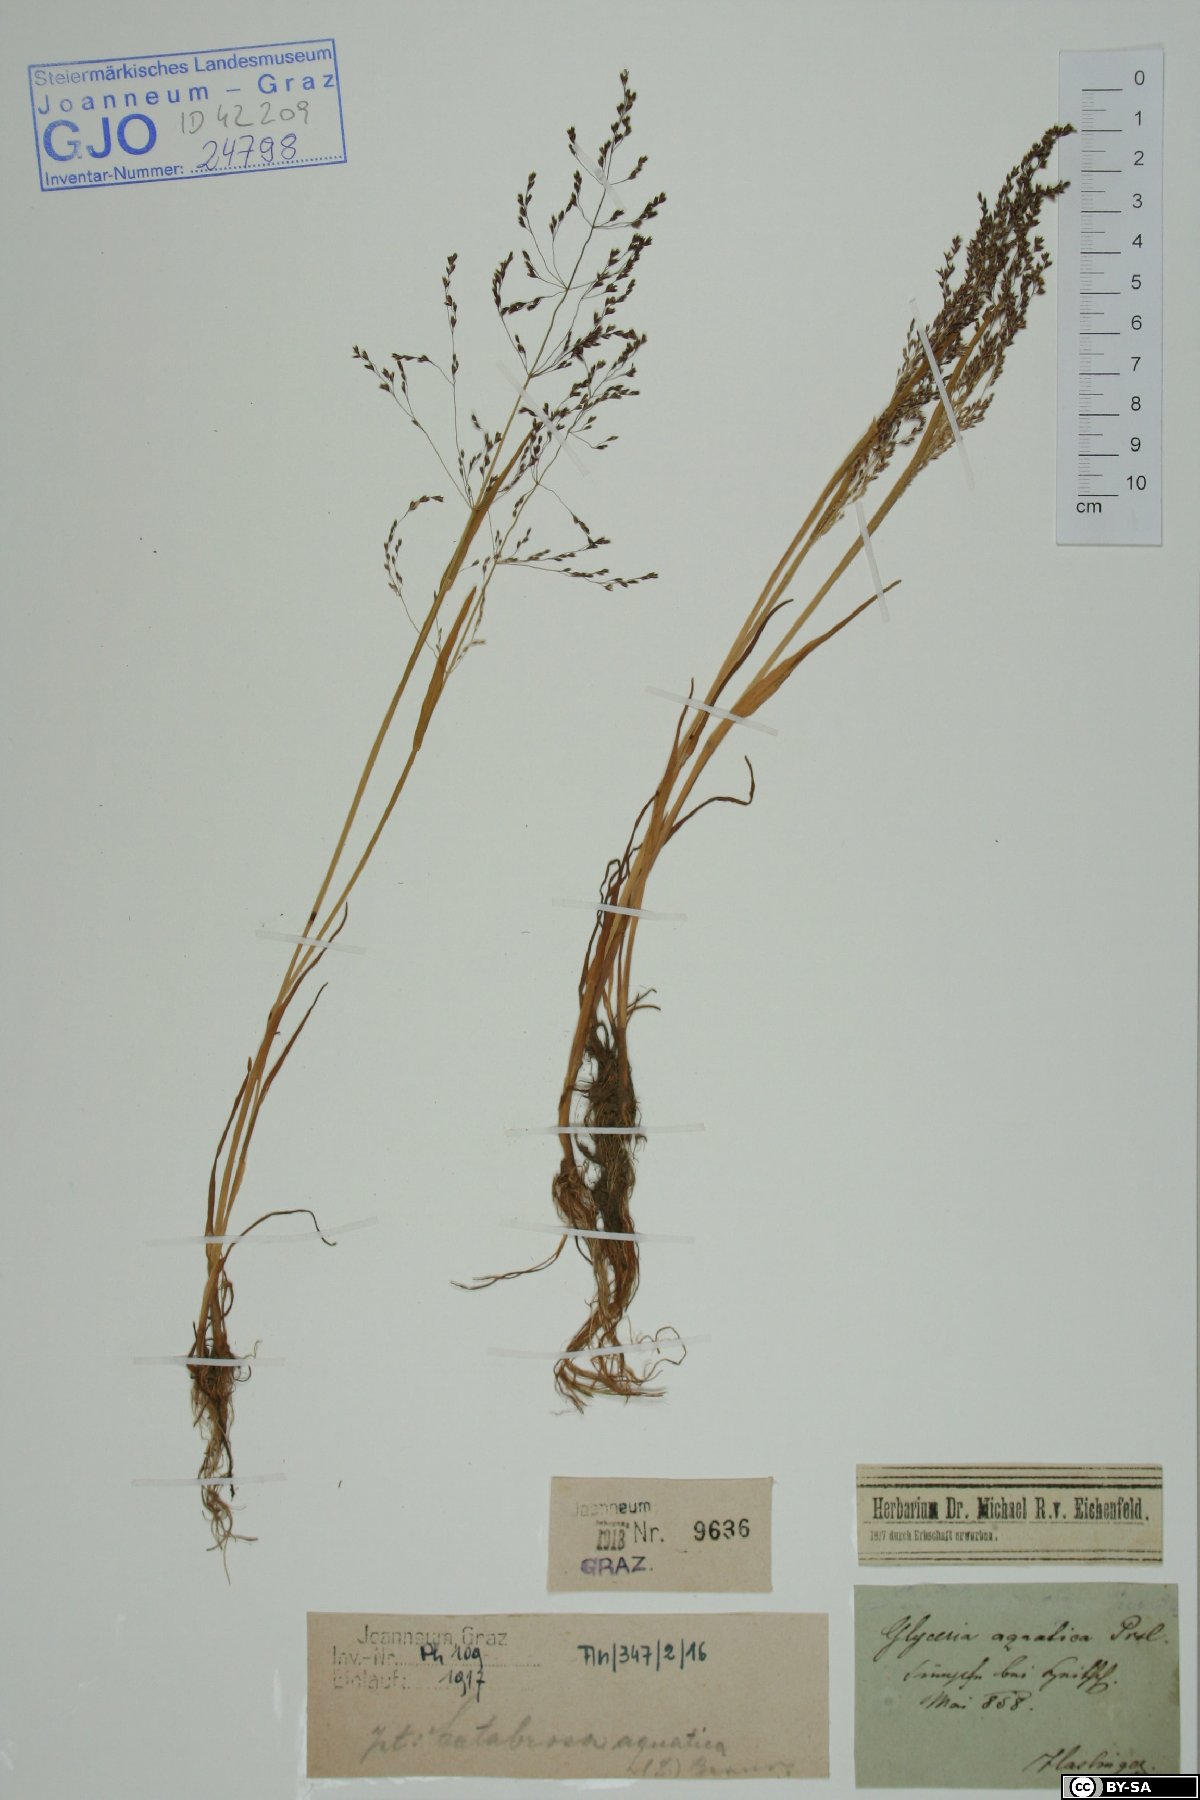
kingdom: Plantae
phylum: Tracheophyta
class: Liliopsida
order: Poales
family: Poaceae
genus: Catabrosa
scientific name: Catabrosa aquatica
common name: Whorl-grass
